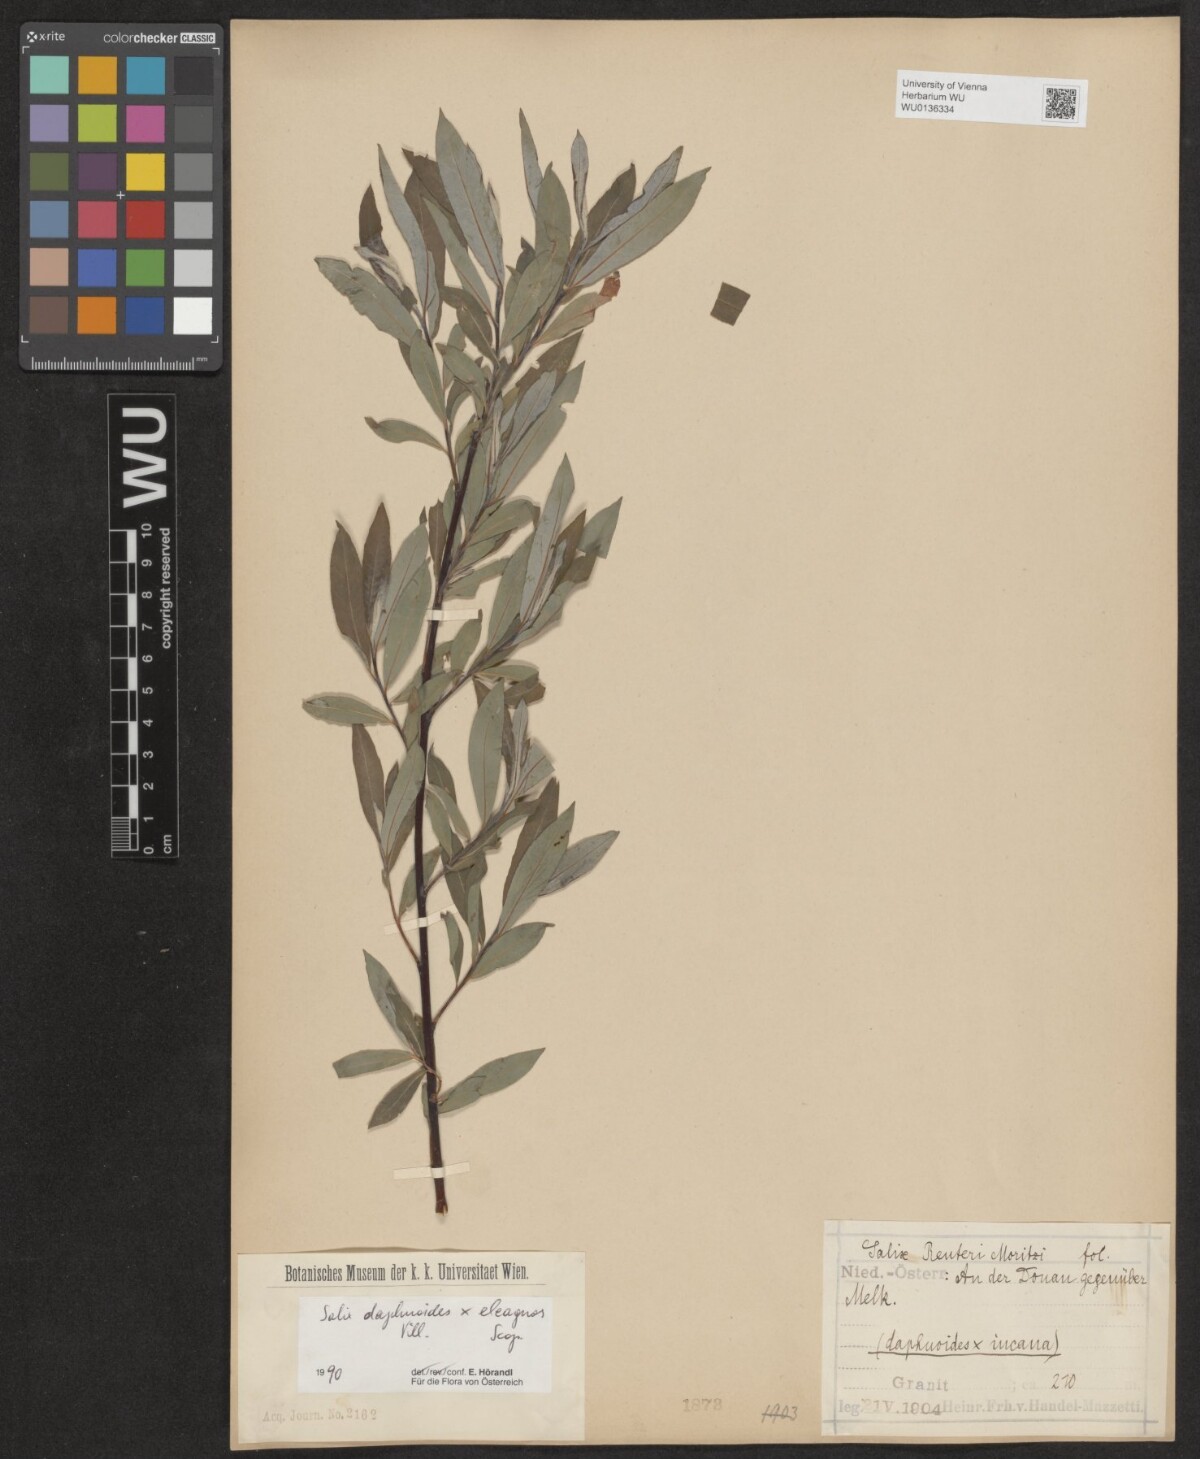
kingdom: Plantae
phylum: Tracheophyta
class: Magnoliopsida
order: Malpighiales
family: Salicaceae
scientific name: Salicaceae
